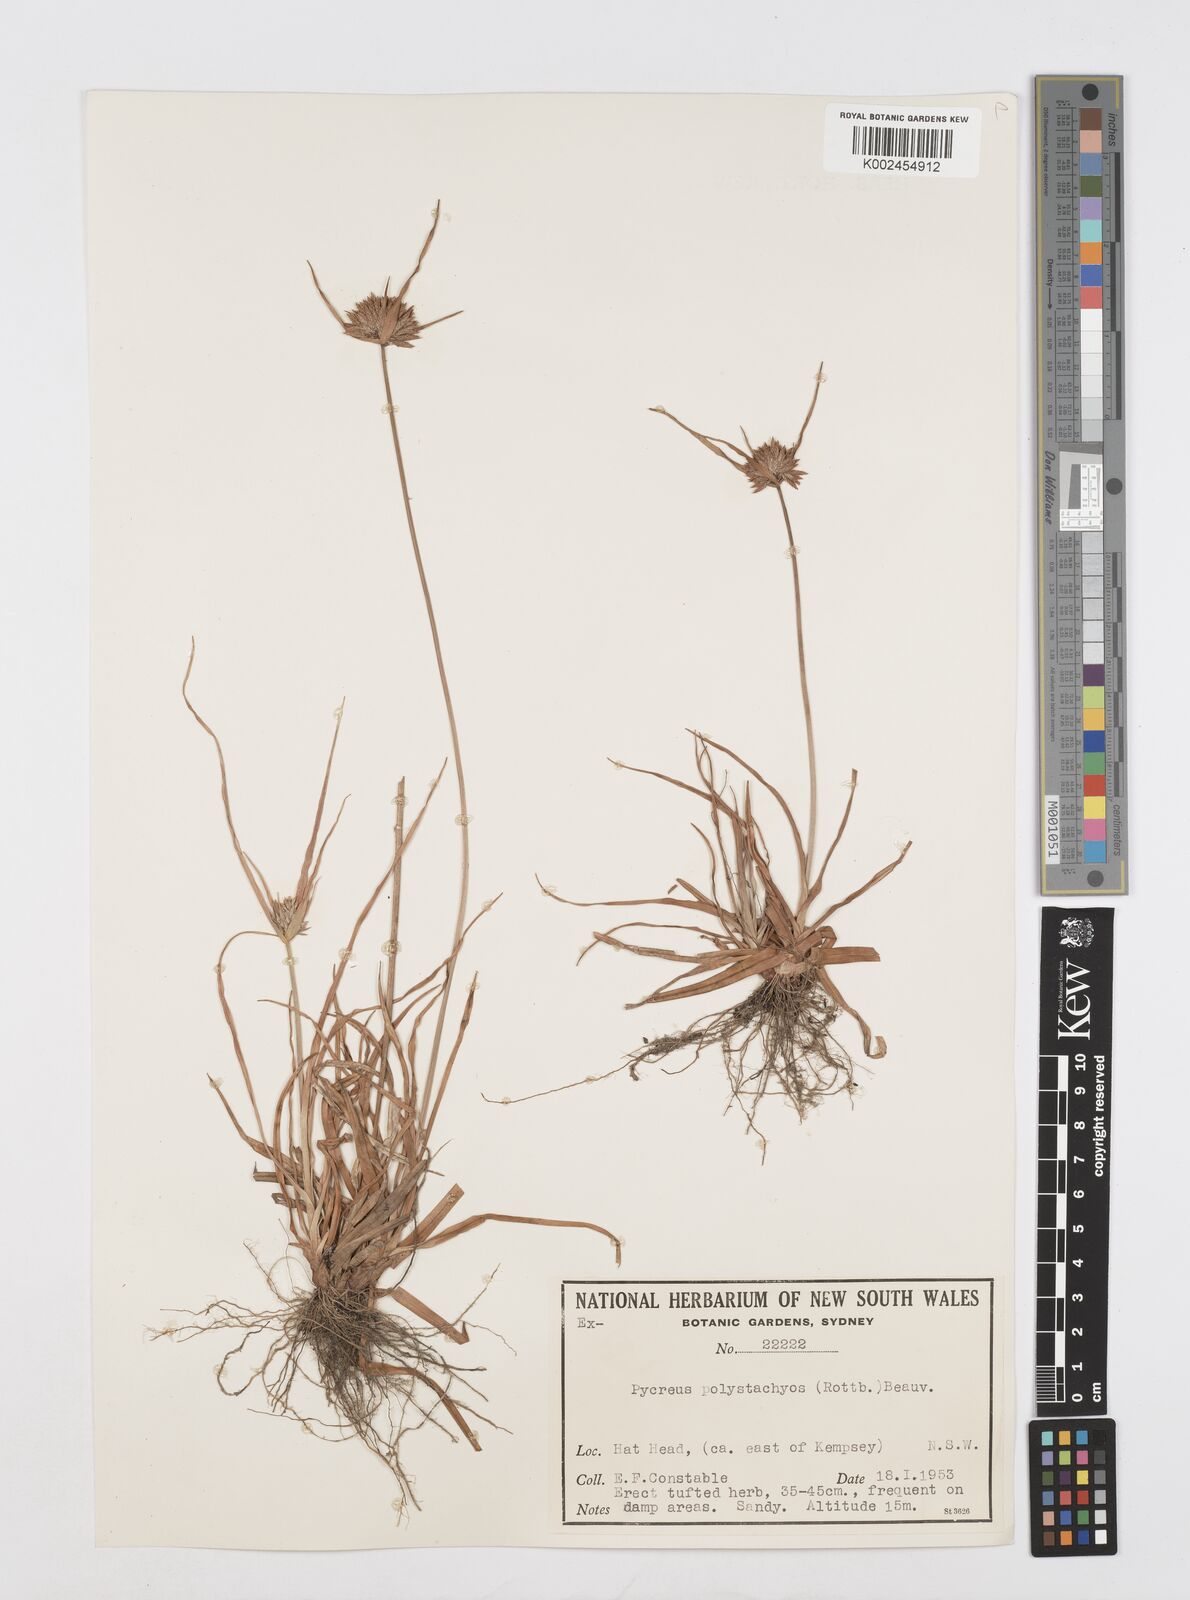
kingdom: Plantae
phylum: Tracheophyta
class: Liliopsida
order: Poales
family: Cyperaceae
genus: Cyperus
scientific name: Cyperus polystachyos
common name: Bunchy flat sedge
